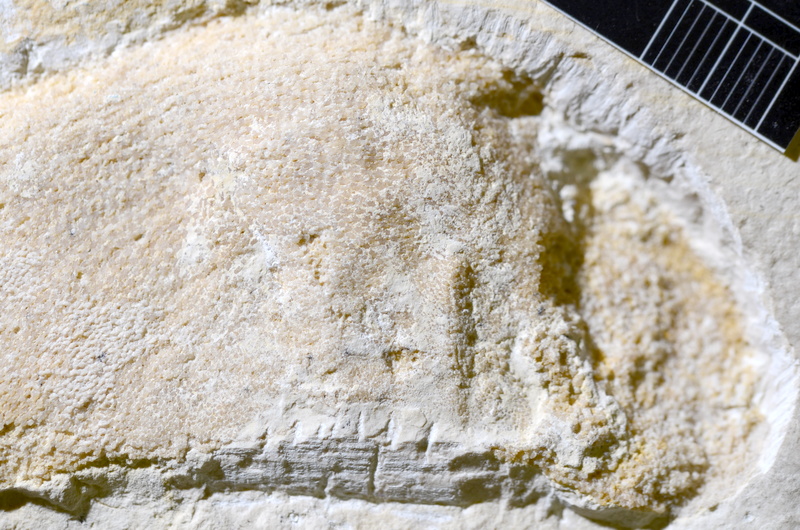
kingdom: Animalia
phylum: Chordata
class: Elasmobranchii
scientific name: Elasmobranchii
